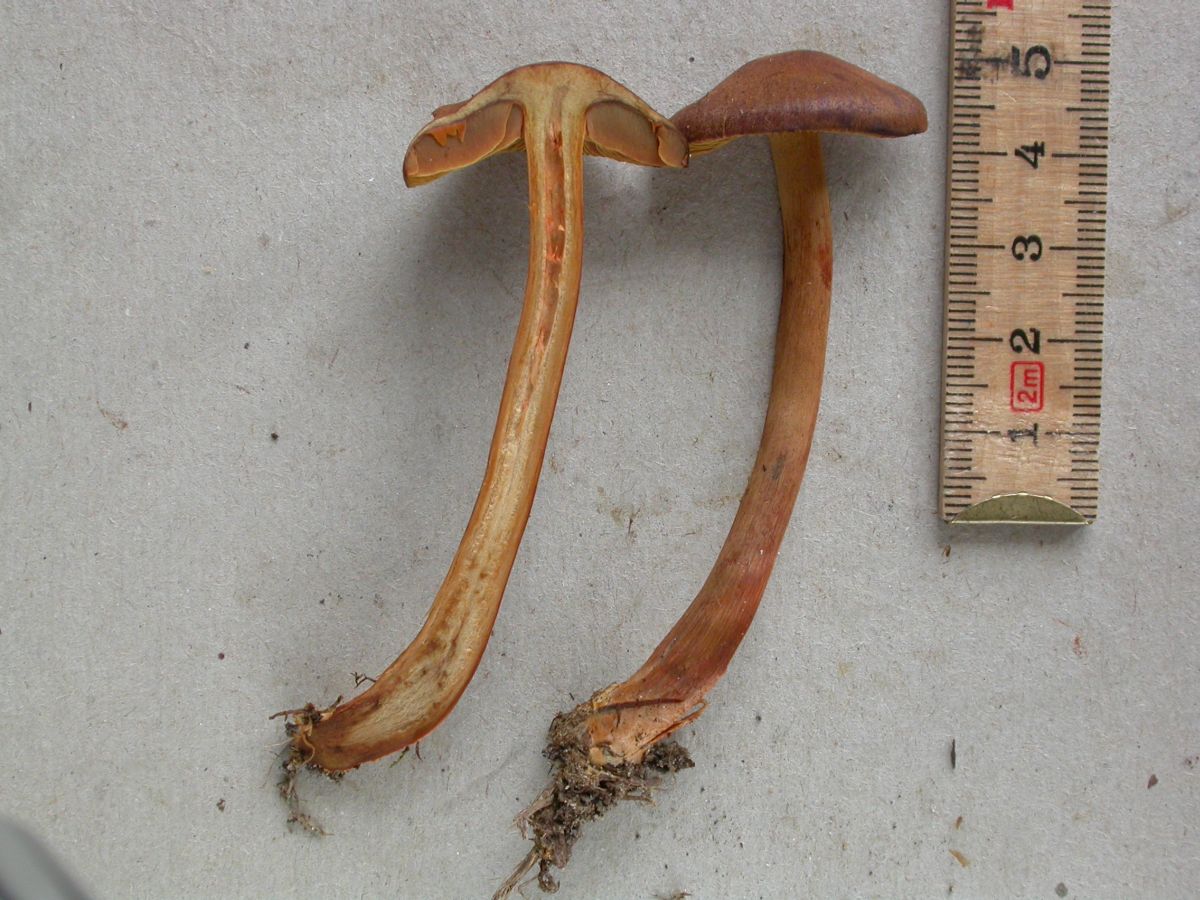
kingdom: Fungi
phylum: Basidiomycota
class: Agaricomycetes
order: Agaricales
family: Cortinariaceae
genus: Cortinarius
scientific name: Cortinarius cinnamomeus
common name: kanel-slørhat
